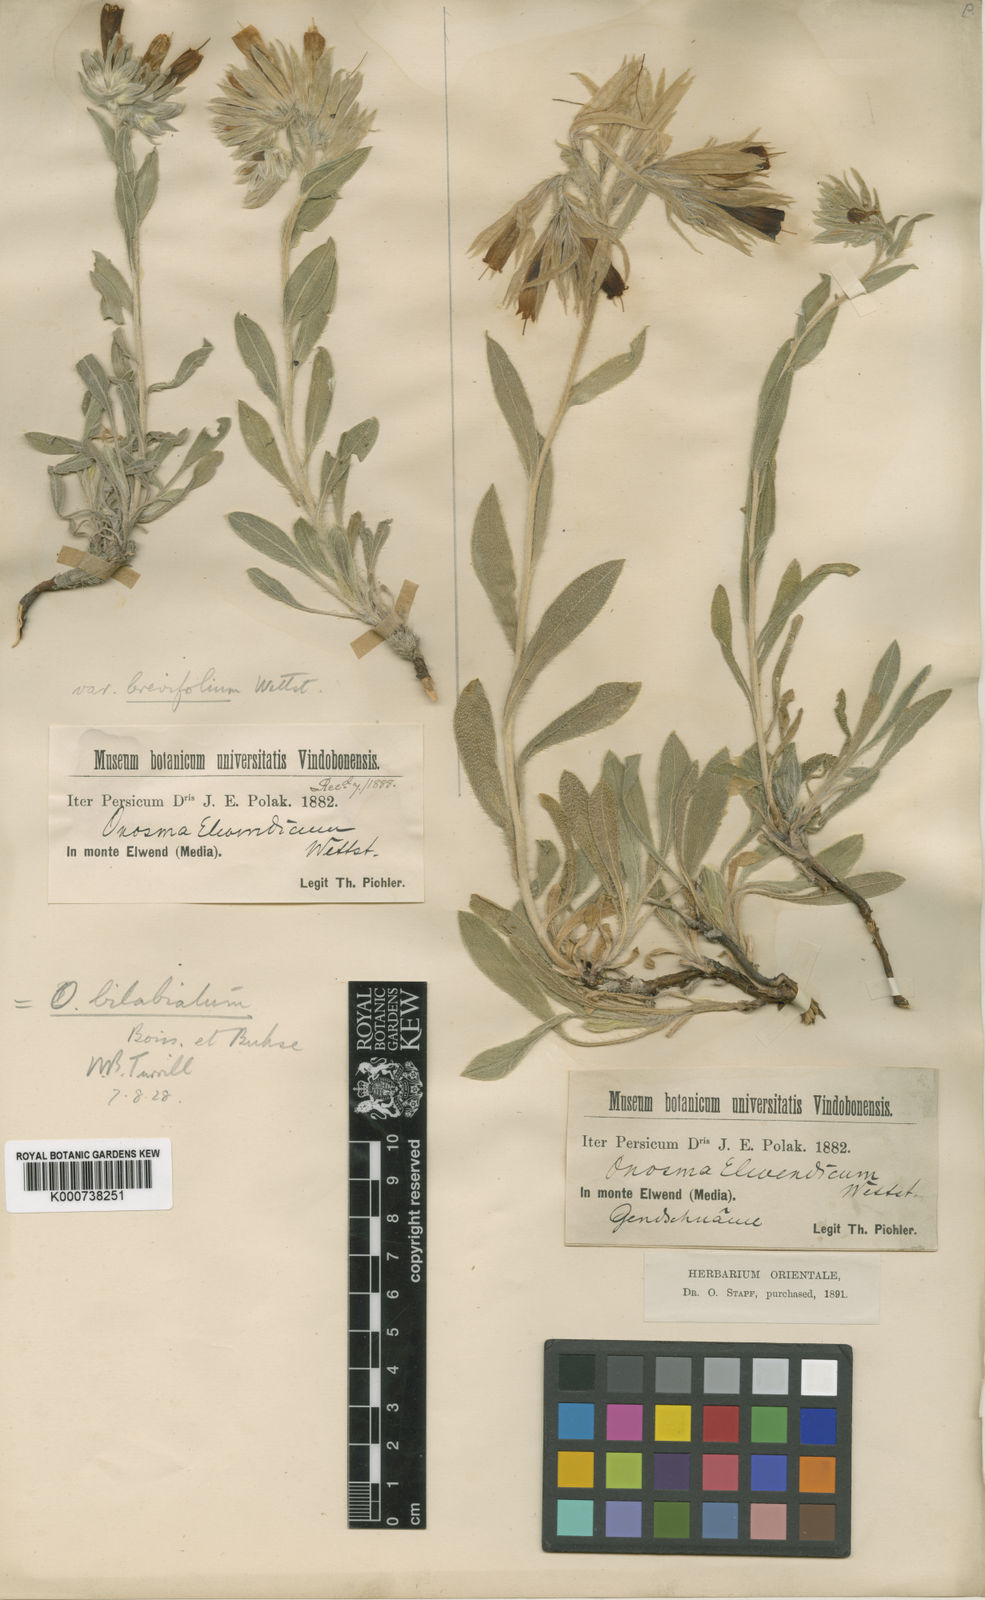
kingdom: Plantae
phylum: Tracheophyta
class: Magnoliopsida
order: Boraginales
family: Boraginaceae
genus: Onosma
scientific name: Onosma bilabiata
